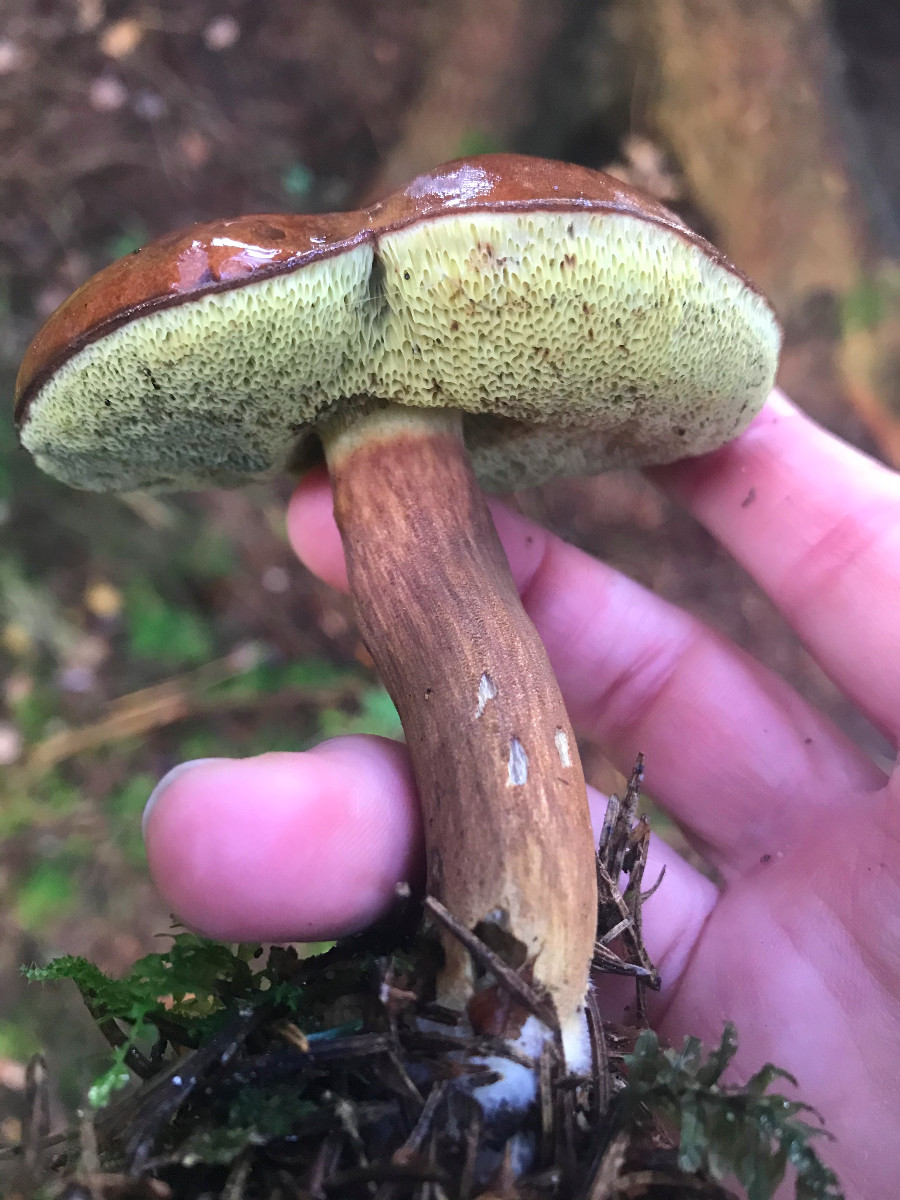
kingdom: Fungi
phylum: Basidiomycota
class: Agaricomycetes
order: Boletales
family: Boletaceae
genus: Imleria
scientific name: Imleria badia
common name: brunstokket rørhat
